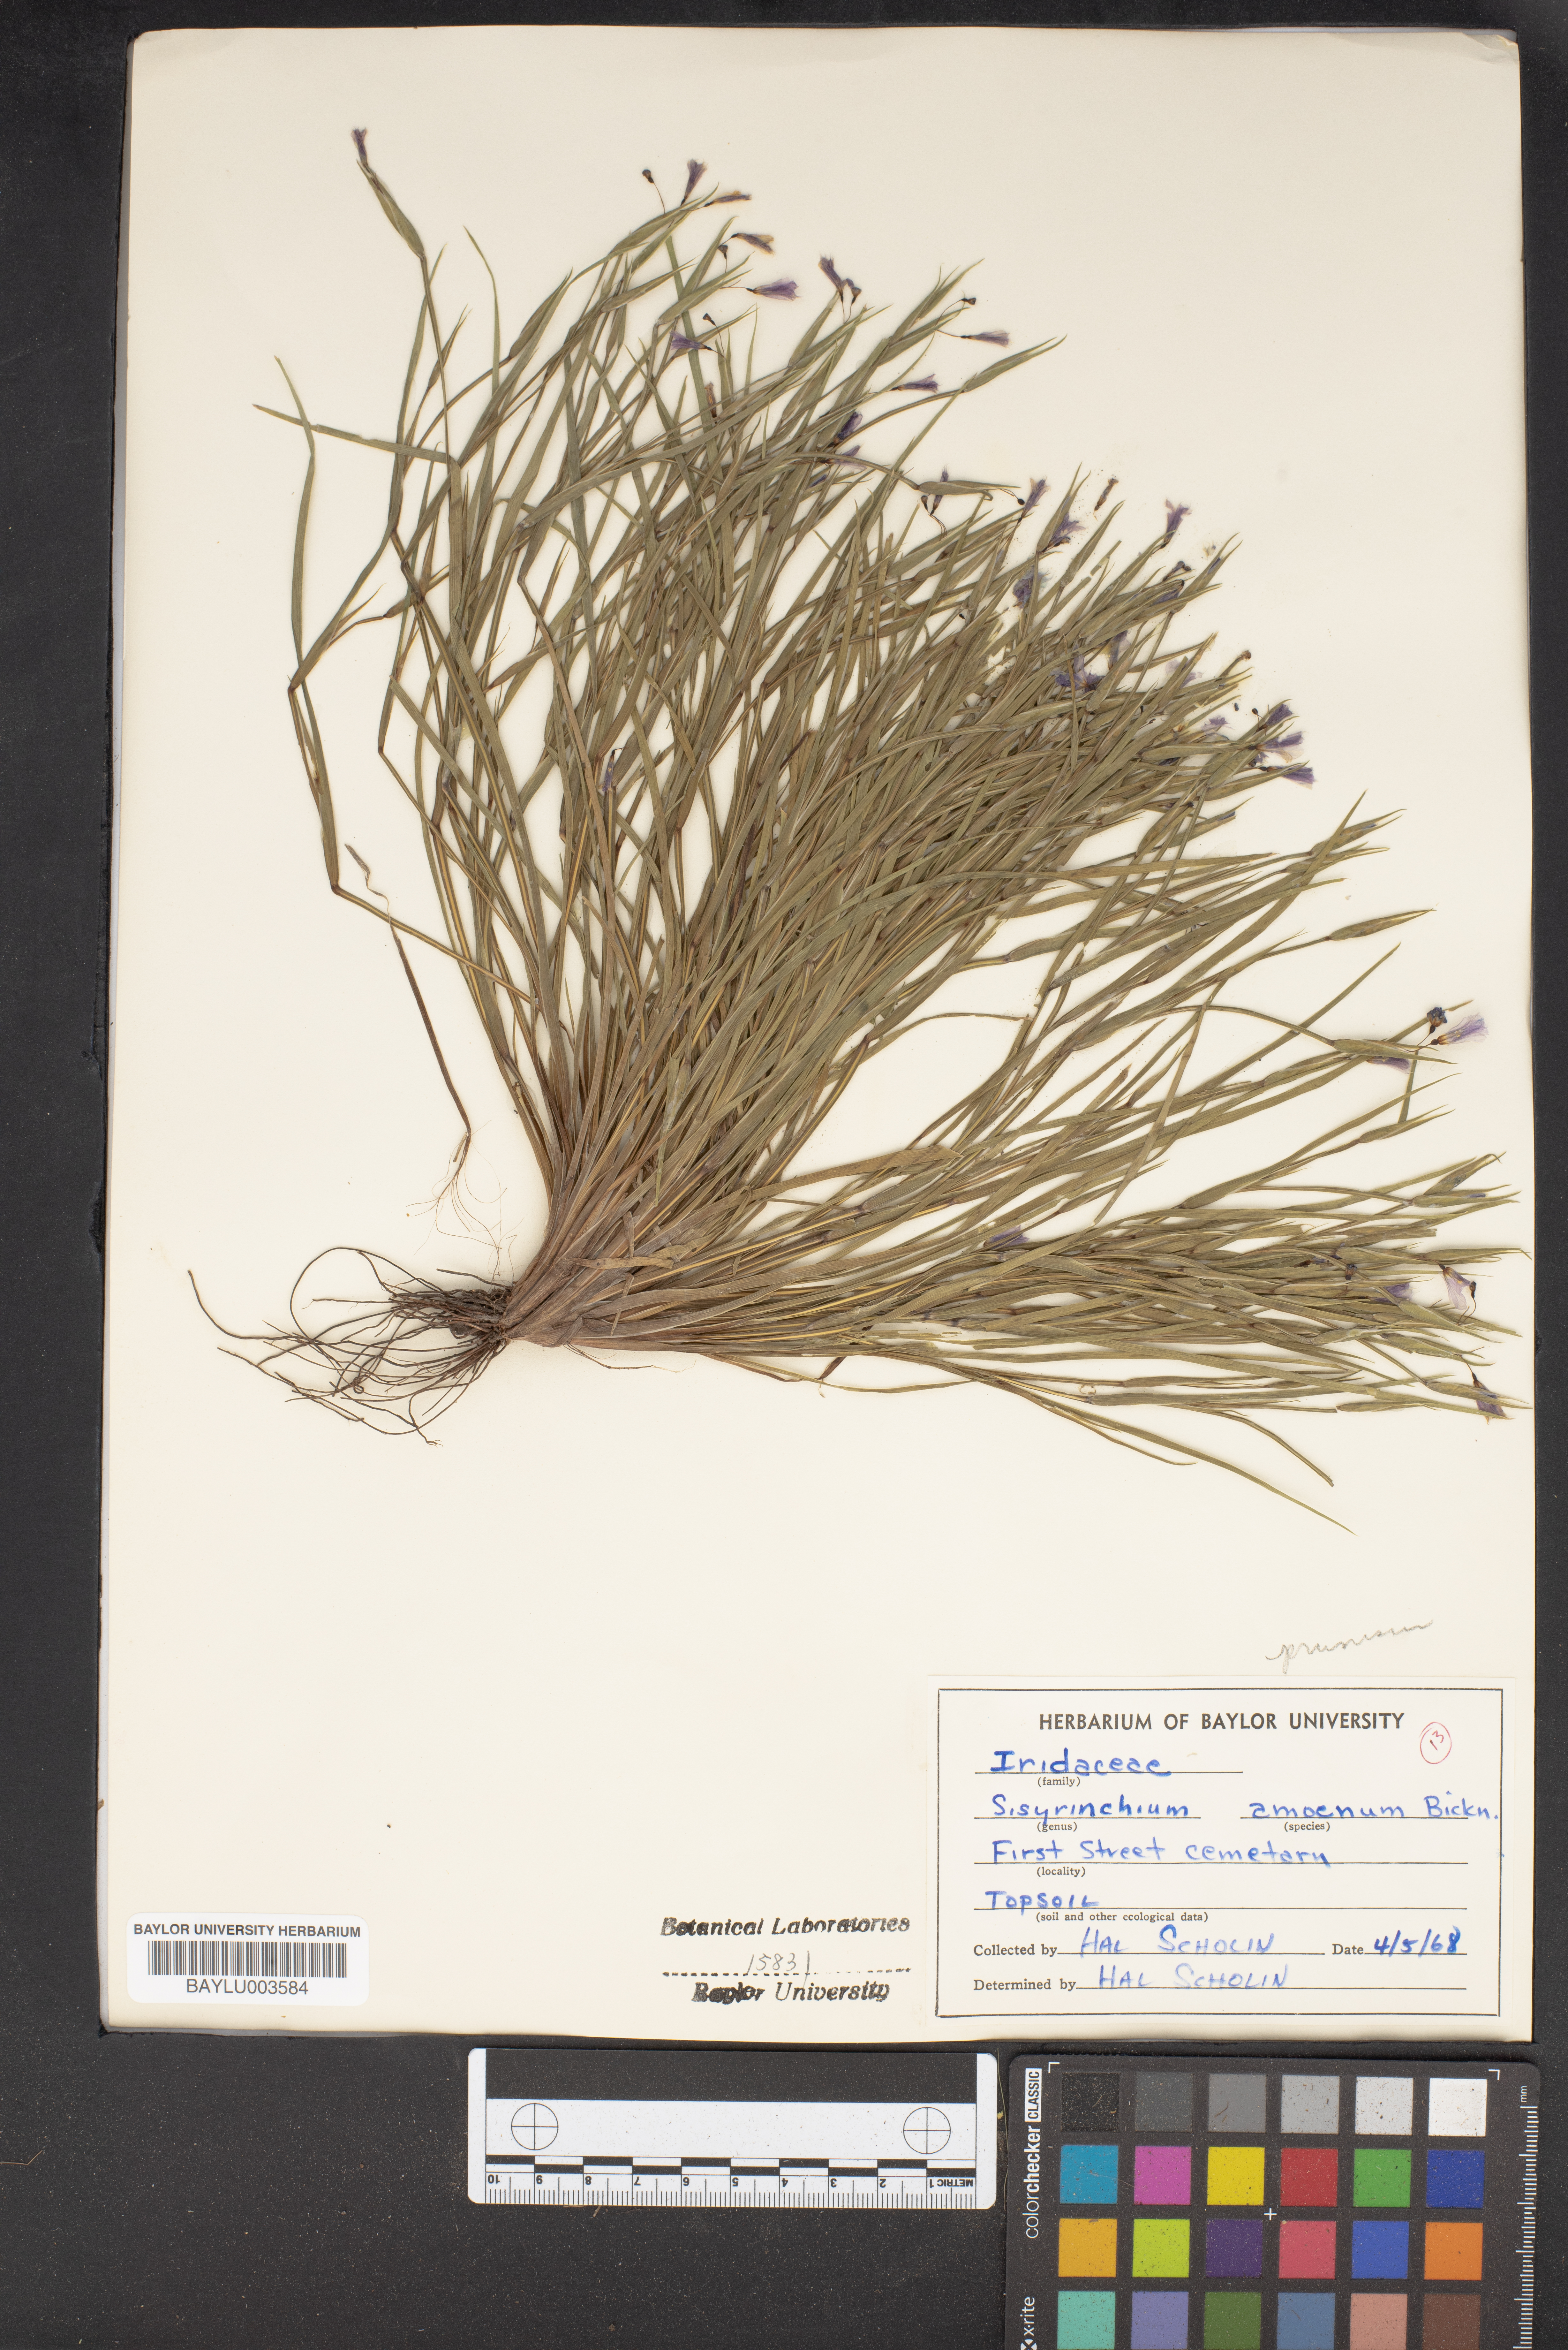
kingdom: Plantae
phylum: Tracheophyta
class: Liliopsida
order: Asparagales
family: Iridaceae
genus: Sisyrinchium
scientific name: Sisyrinchium ensigerum
